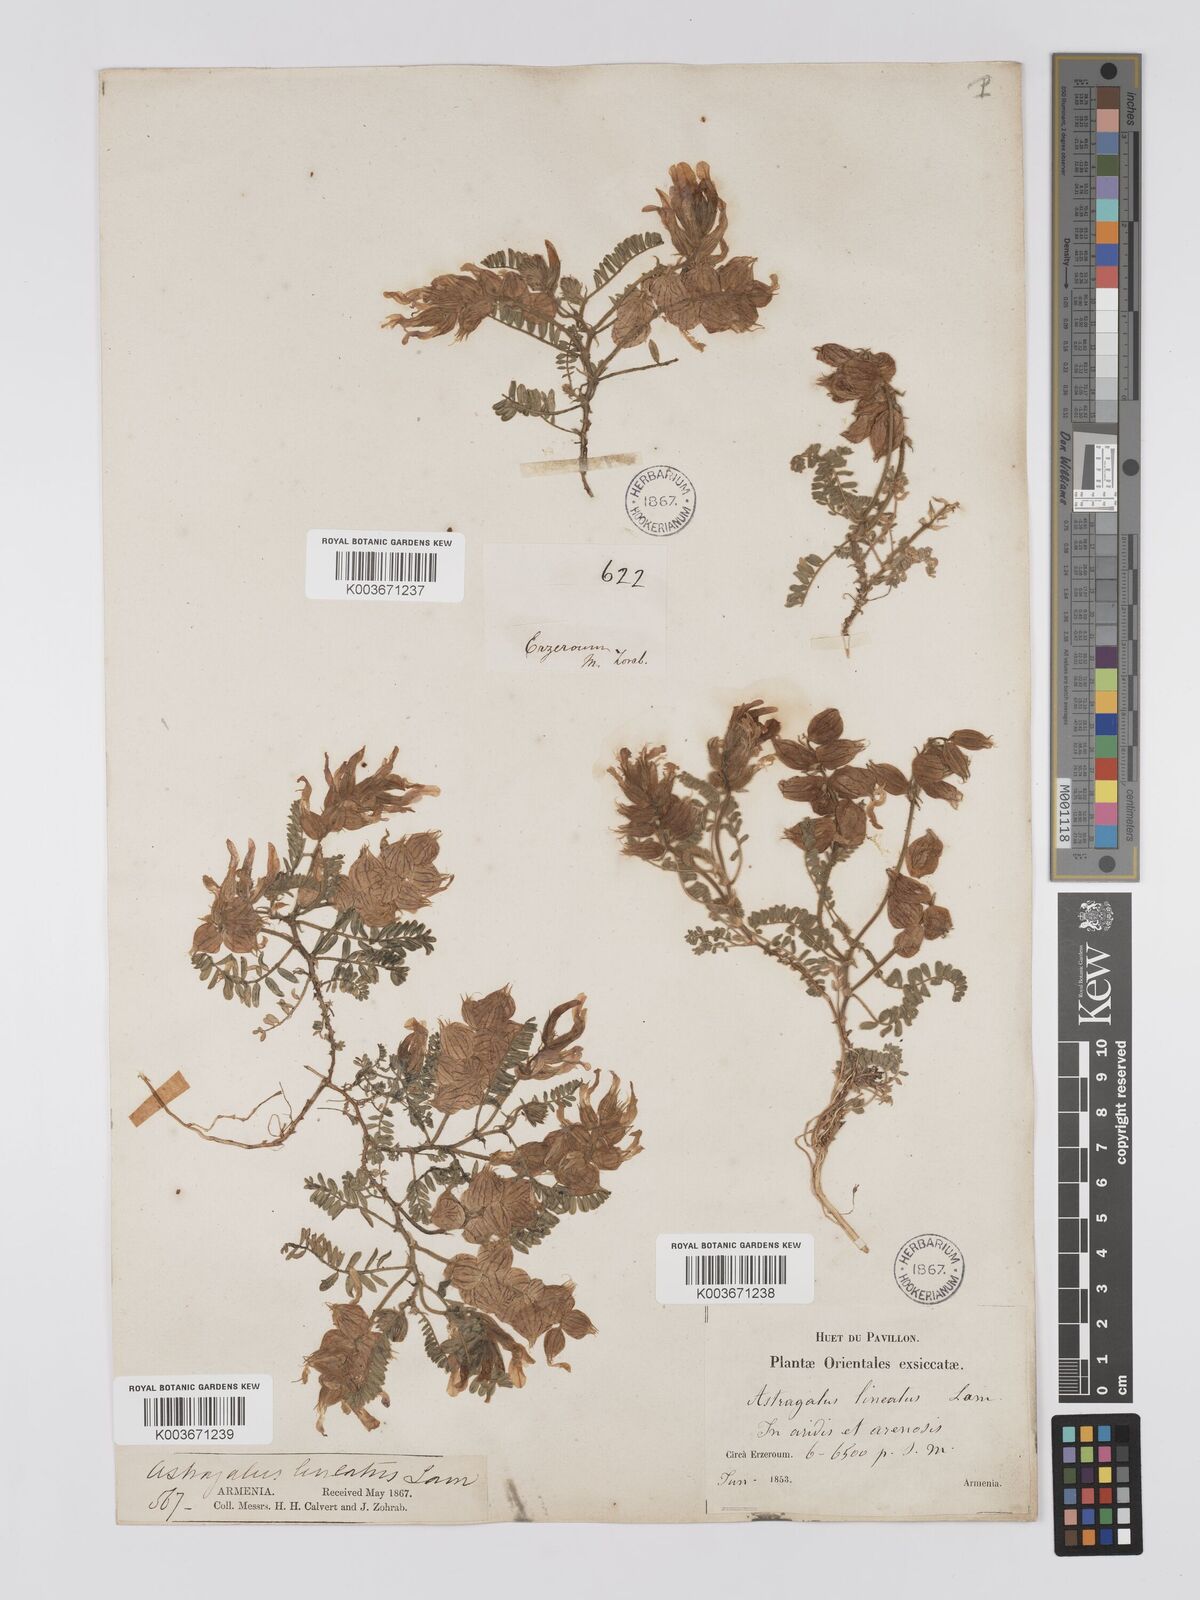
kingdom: Plantae
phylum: Tracheophyta
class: Magnoliopsida
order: Fabales
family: Fabaceae
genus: Astragalus
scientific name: Astragalus lineatus
